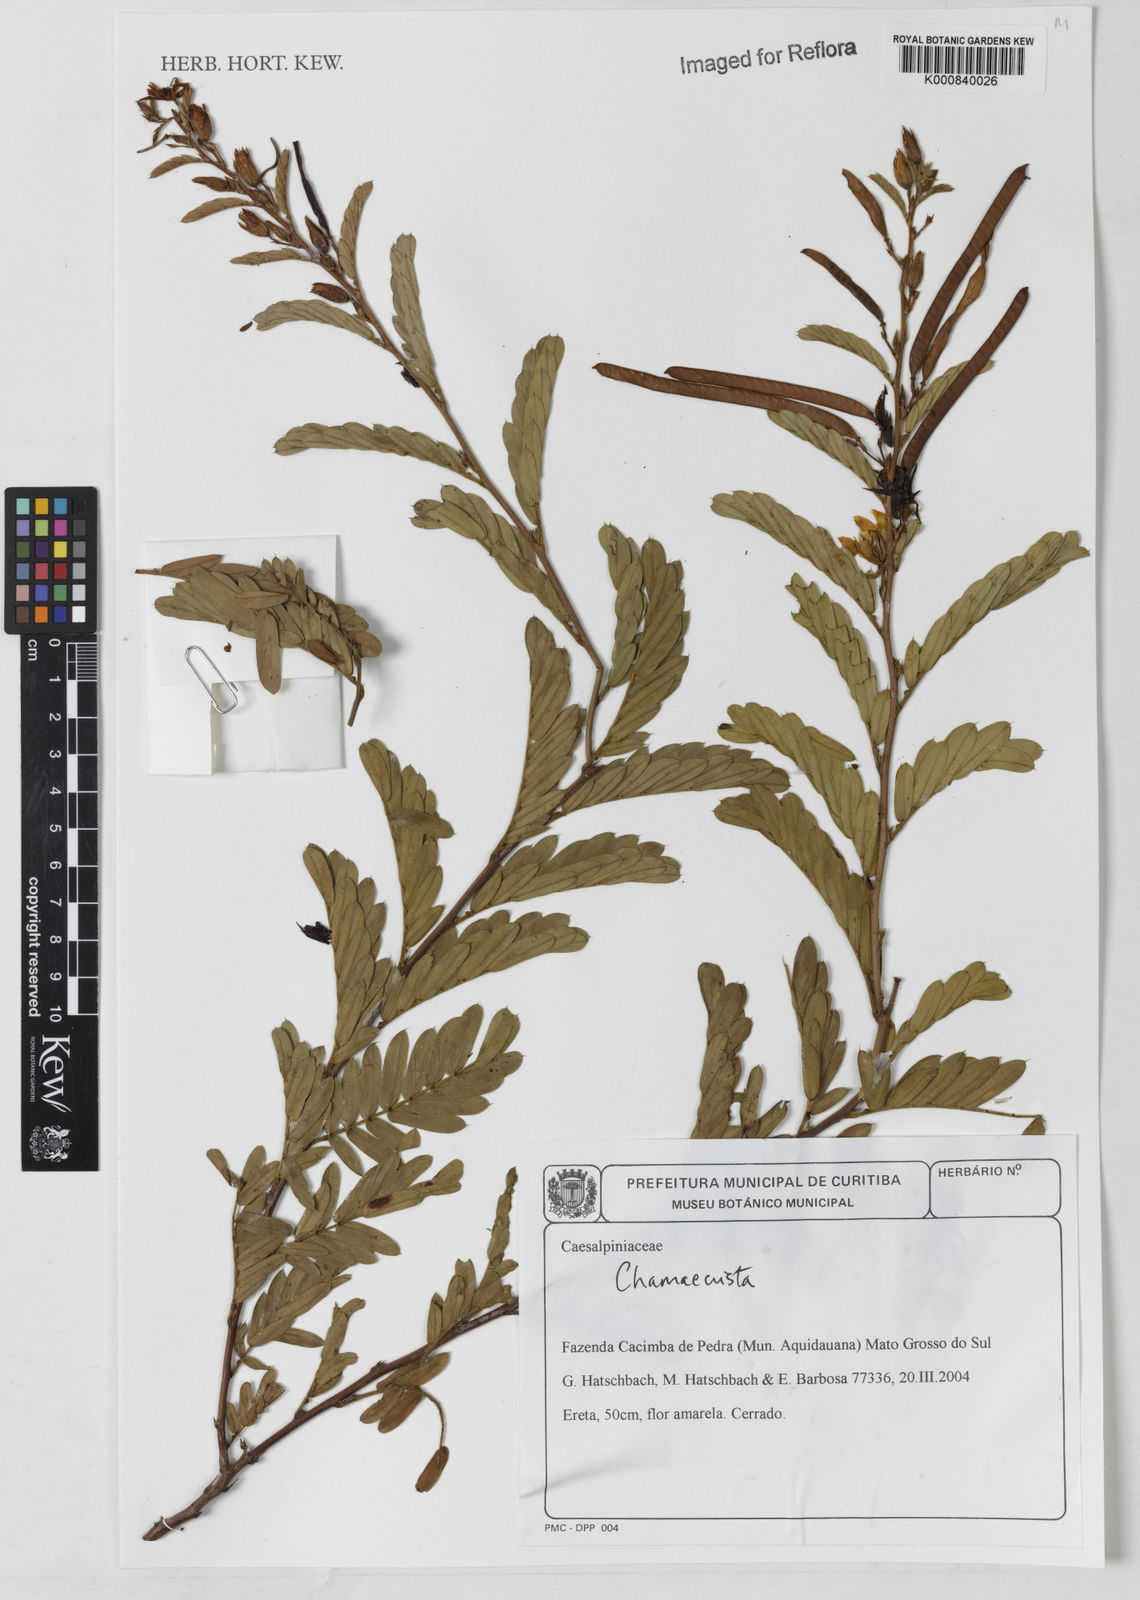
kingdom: Plantae
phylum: Tracheophyta
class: Magnoliopsida
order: Fabales
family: Fabaceae
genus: Chamaecrista
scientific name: Chamaecrista repens
